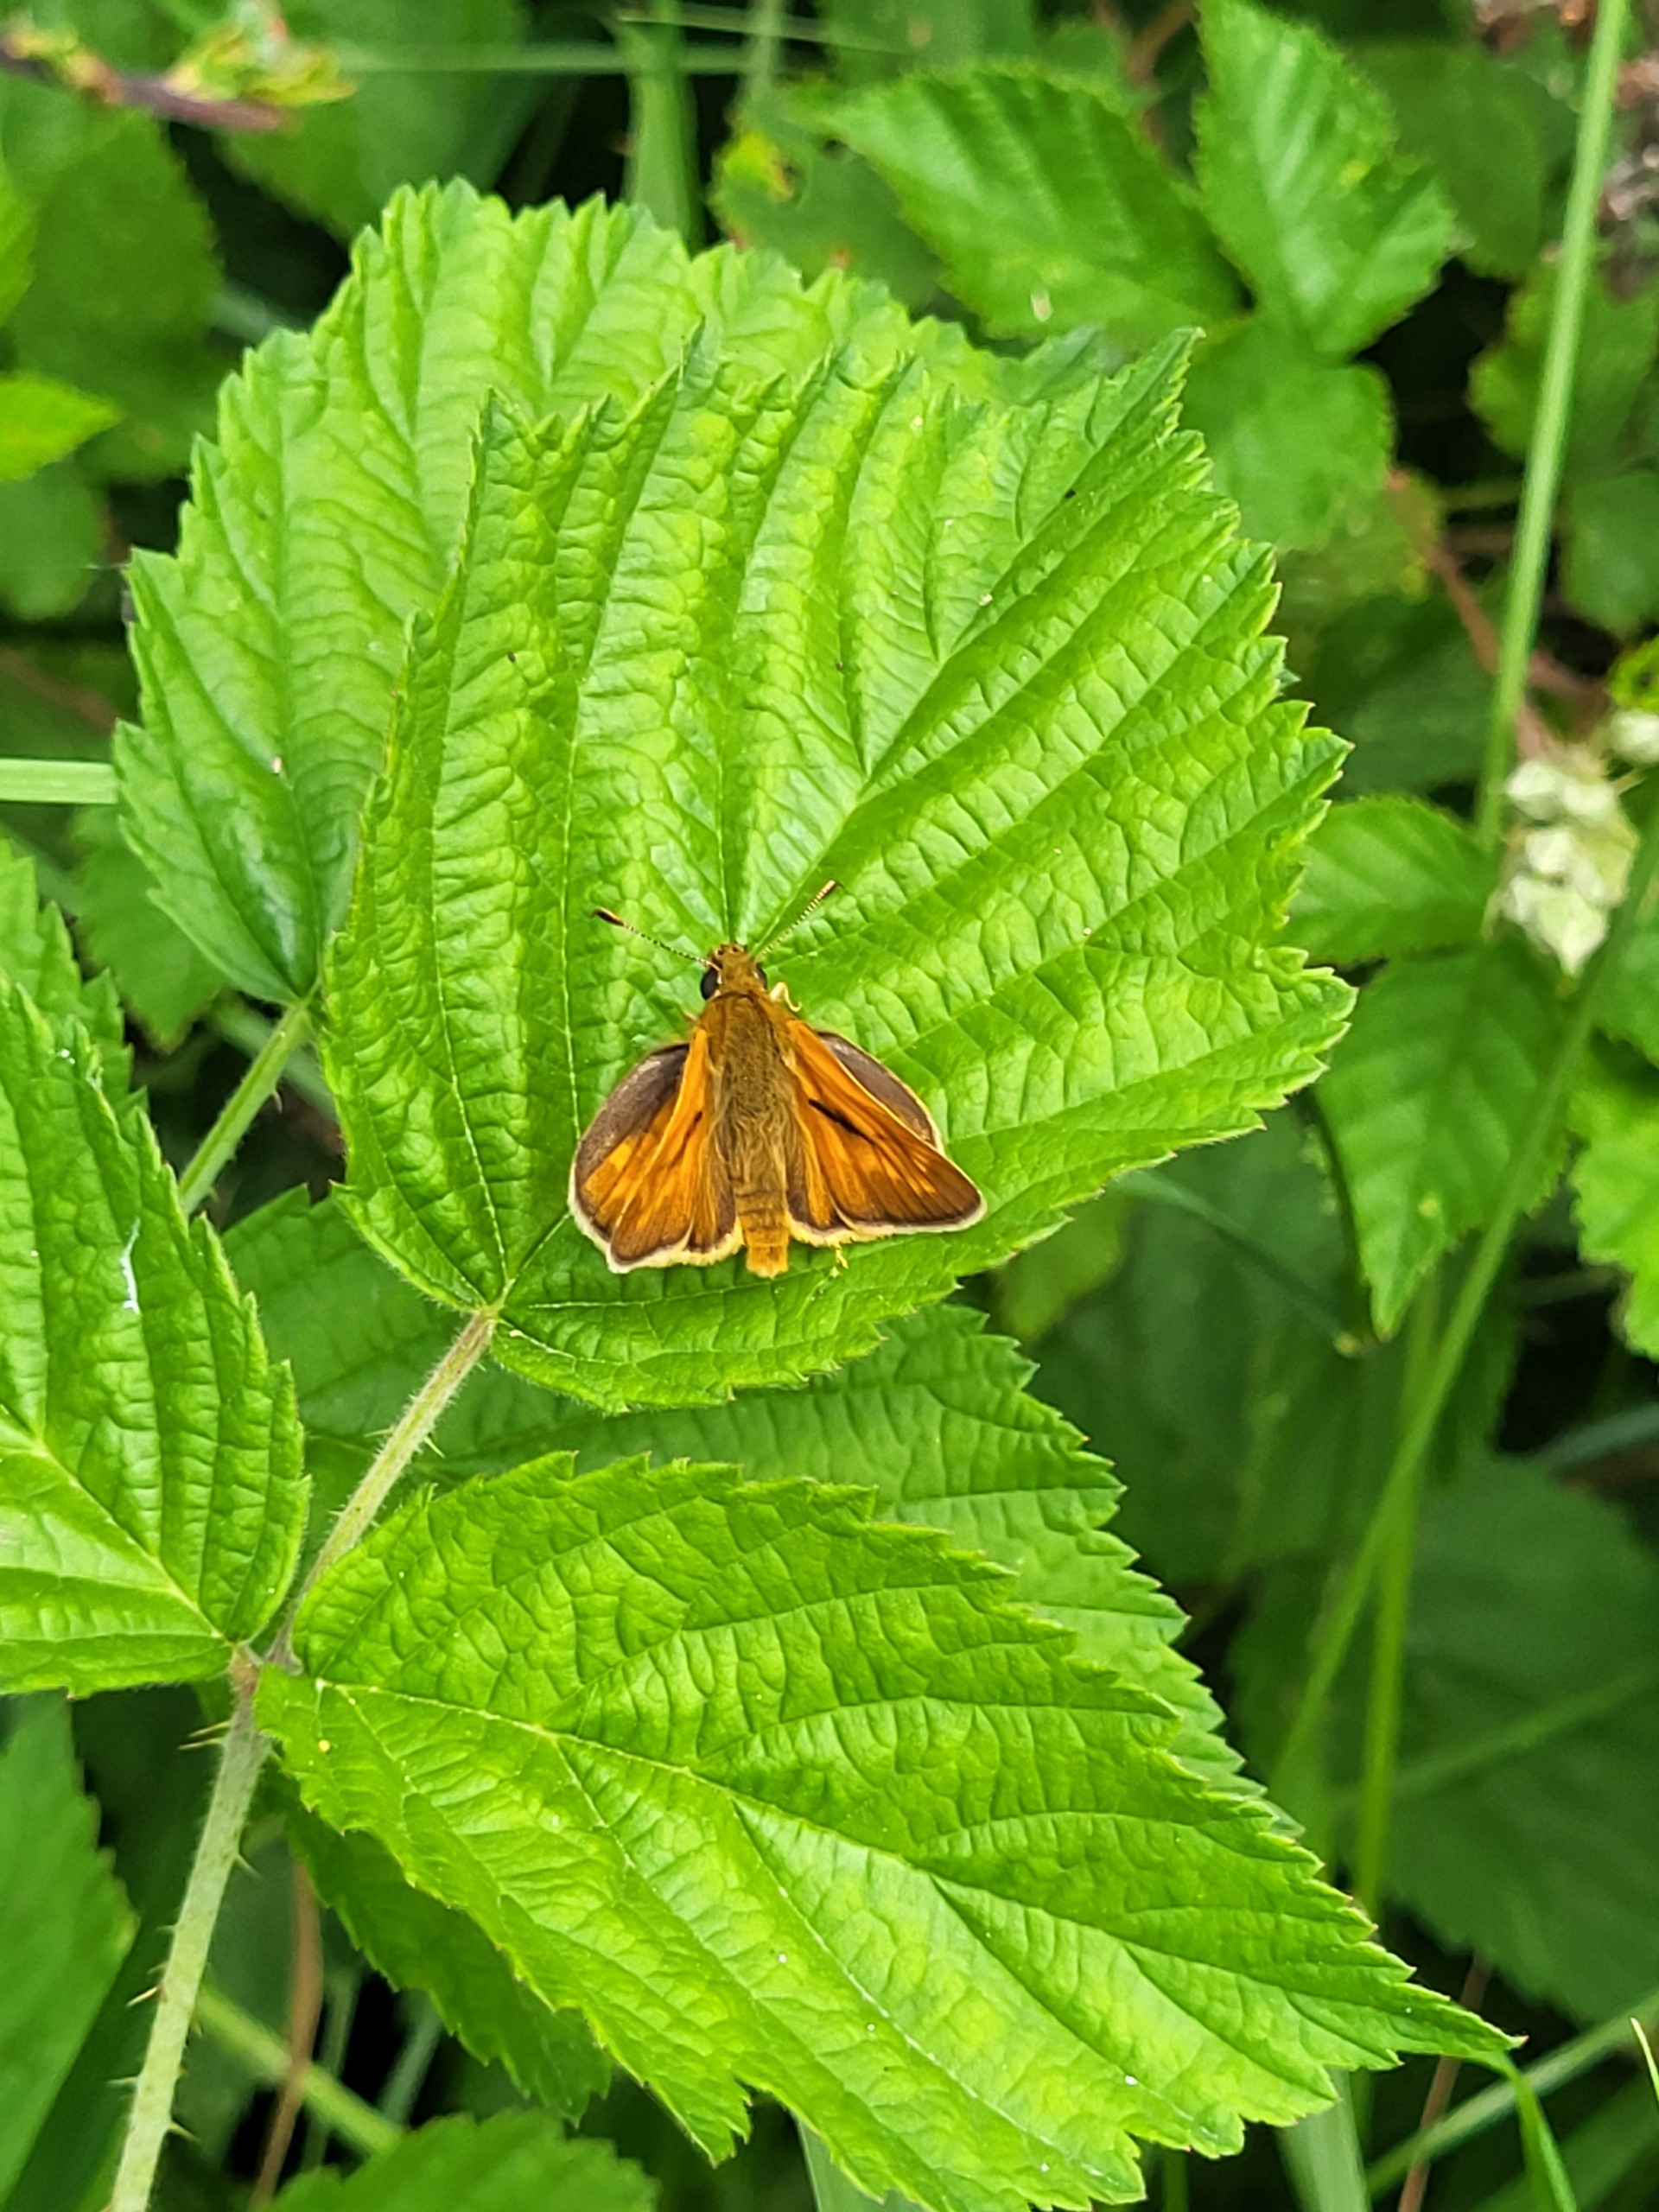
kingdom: Animalia
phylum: Arthropoda
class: Insecta
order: Lepidoptera
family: Hesperiidae
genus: Ochlodes
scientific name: Ochlodes venata
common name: Stor bredpande
